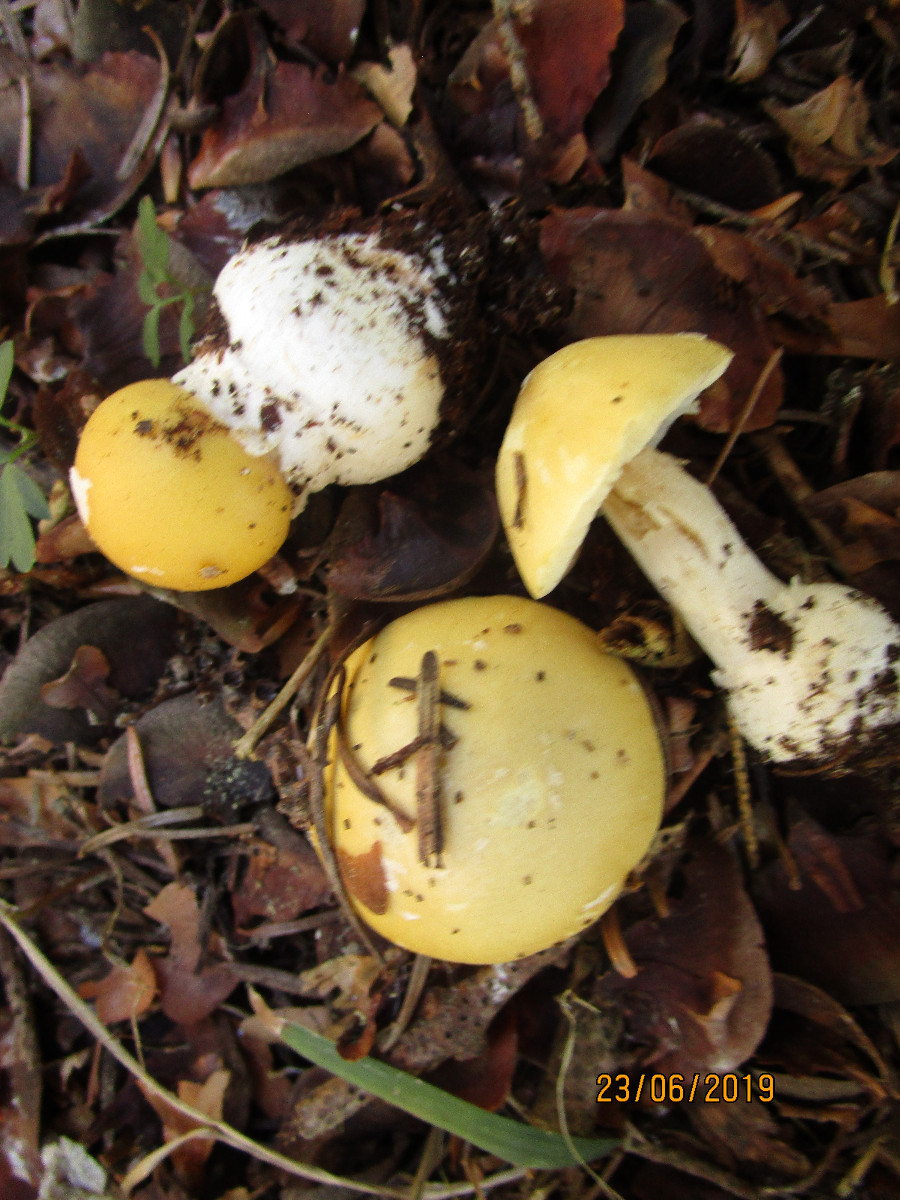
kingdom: Fungi
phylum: Basidiomycota
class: Agaricomycetes
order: Agaricales
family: Amanitaceae
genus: Amanita
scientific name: Amanita gemmata
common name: okkergul fluesvamp
